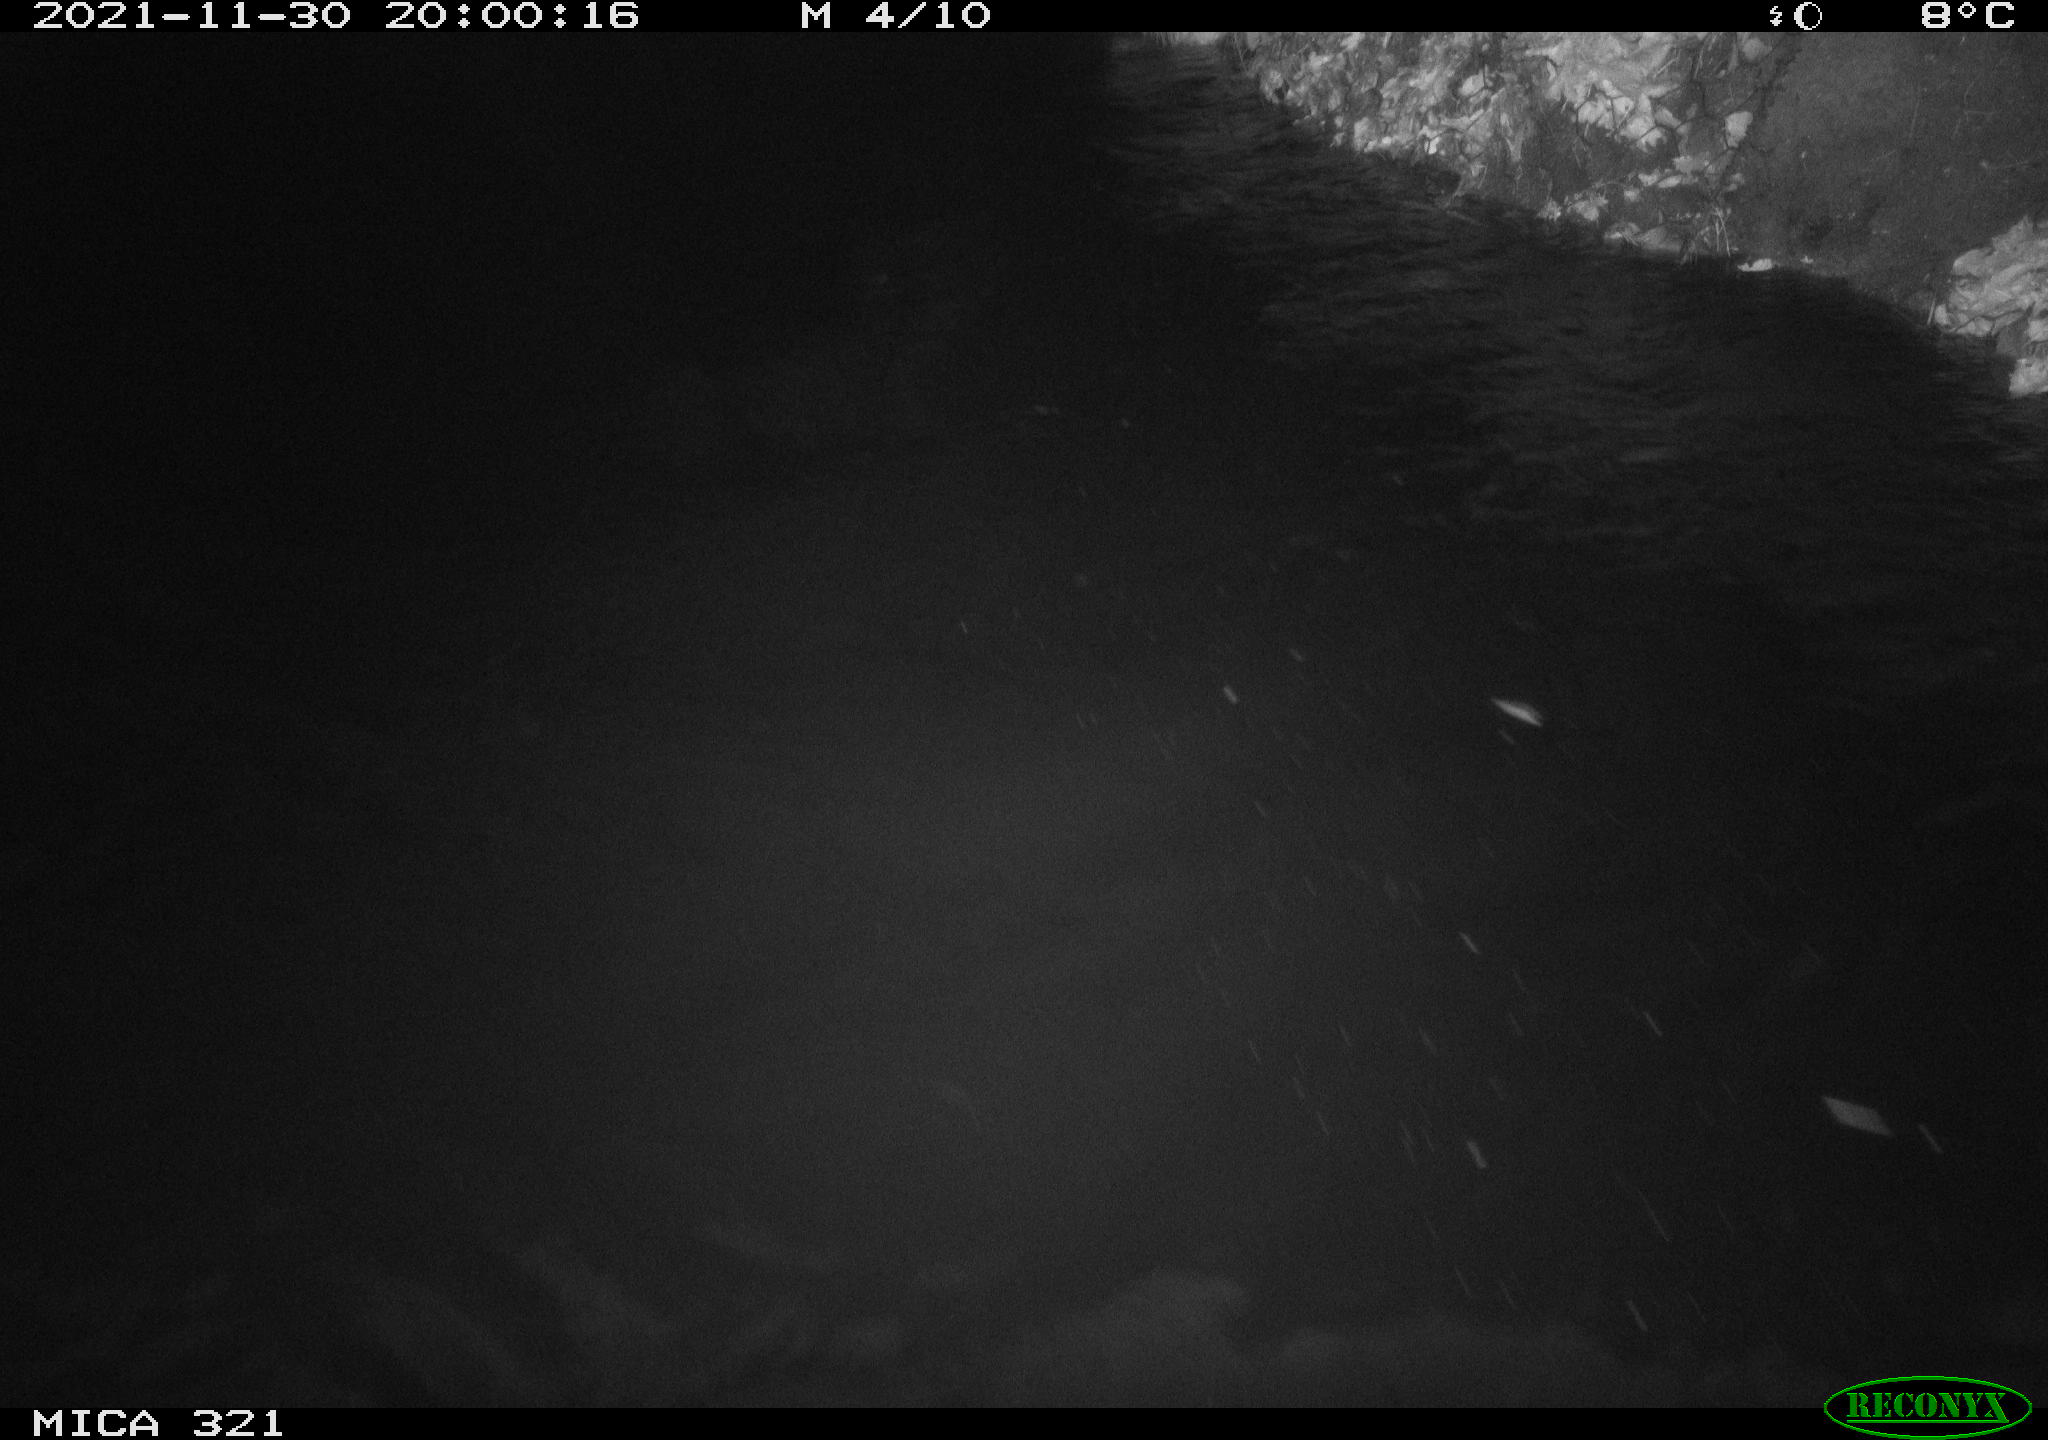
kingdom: Animalia
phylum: Chordata
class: Aves
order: Anseriformes
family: Anatidae
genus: Anas
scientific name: Anas platyrhynchos
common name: Mallard
